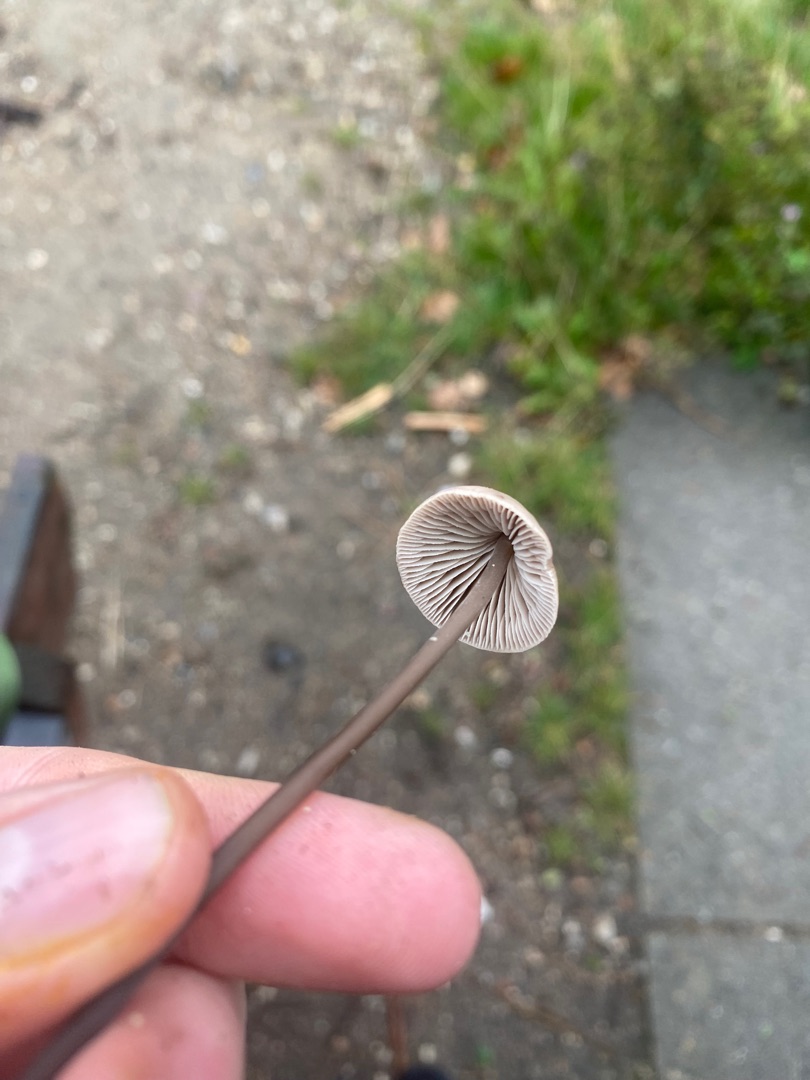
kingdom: Fungi
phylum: Basidiomycota
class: Agaricomycetes
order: Agaricales
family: Omphalotaceae
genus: Mycetinis
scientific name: Mycetinis alliaceus
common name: Stor løghat
